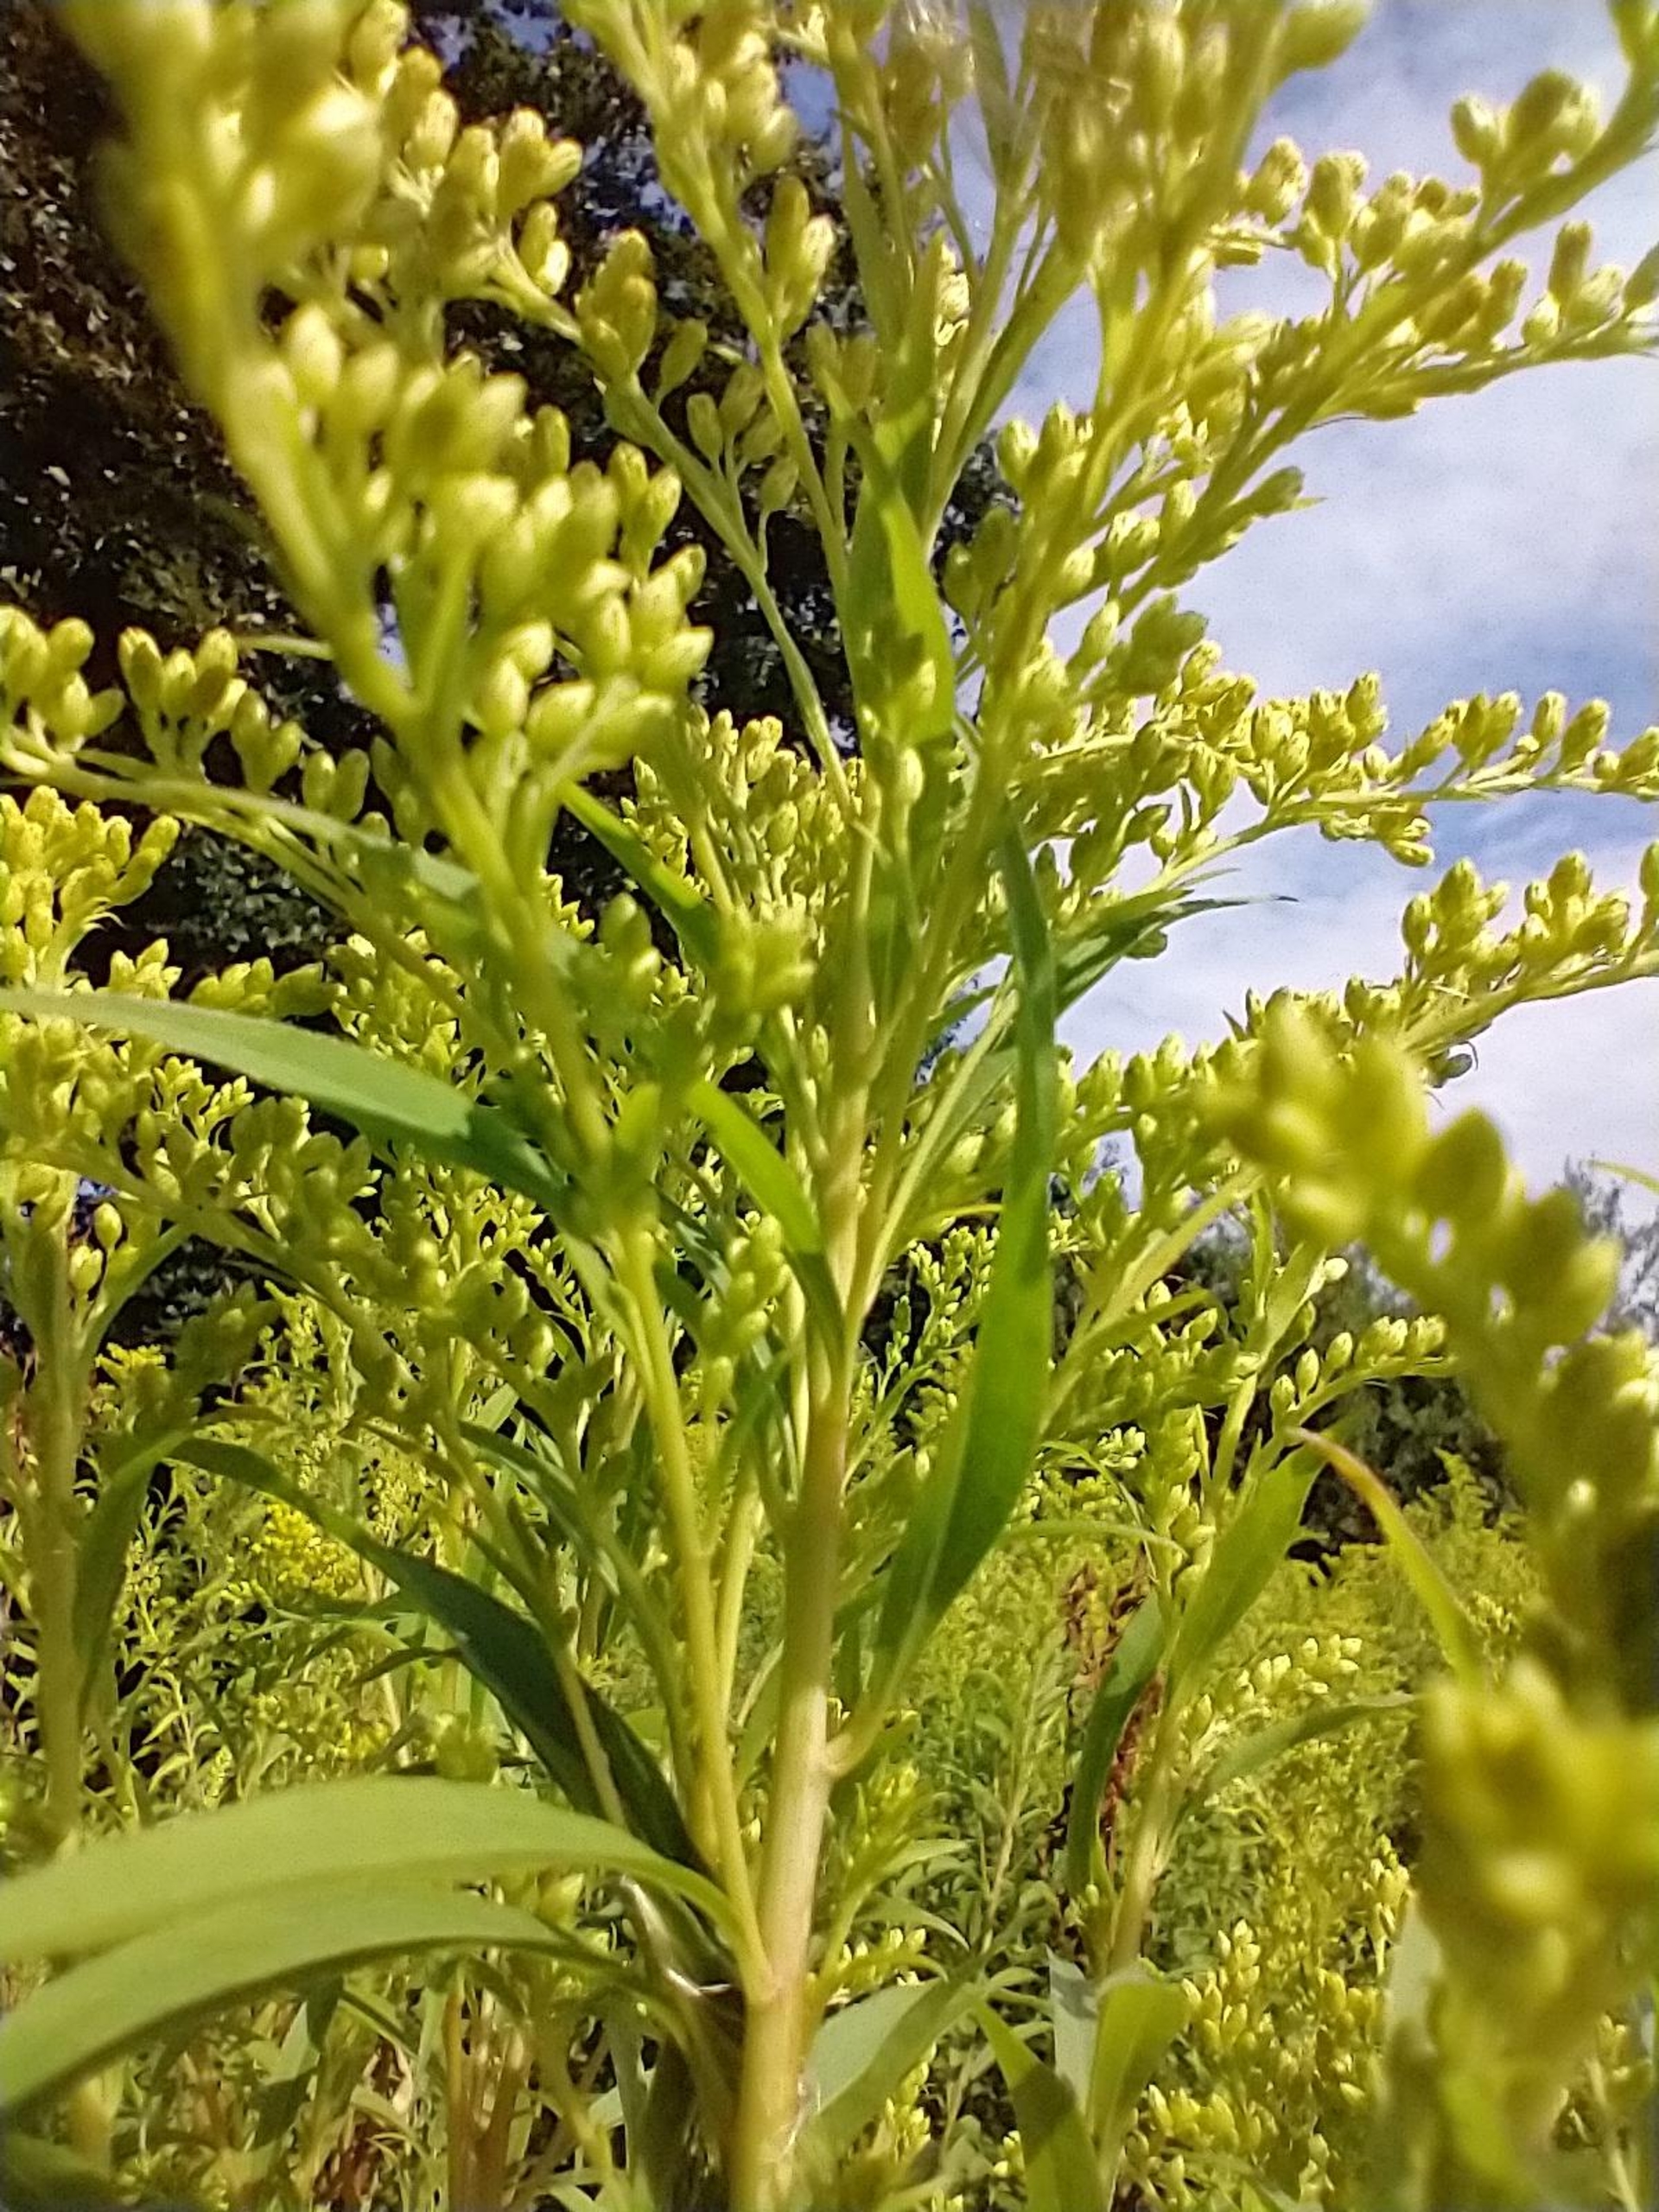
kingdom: Plantae
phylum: Tracheophyta
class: Magnoliopsida
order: Asterales
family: Asteraceae
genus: Solidago
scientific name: Solidago gigantea
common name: Sildig gyldenris
